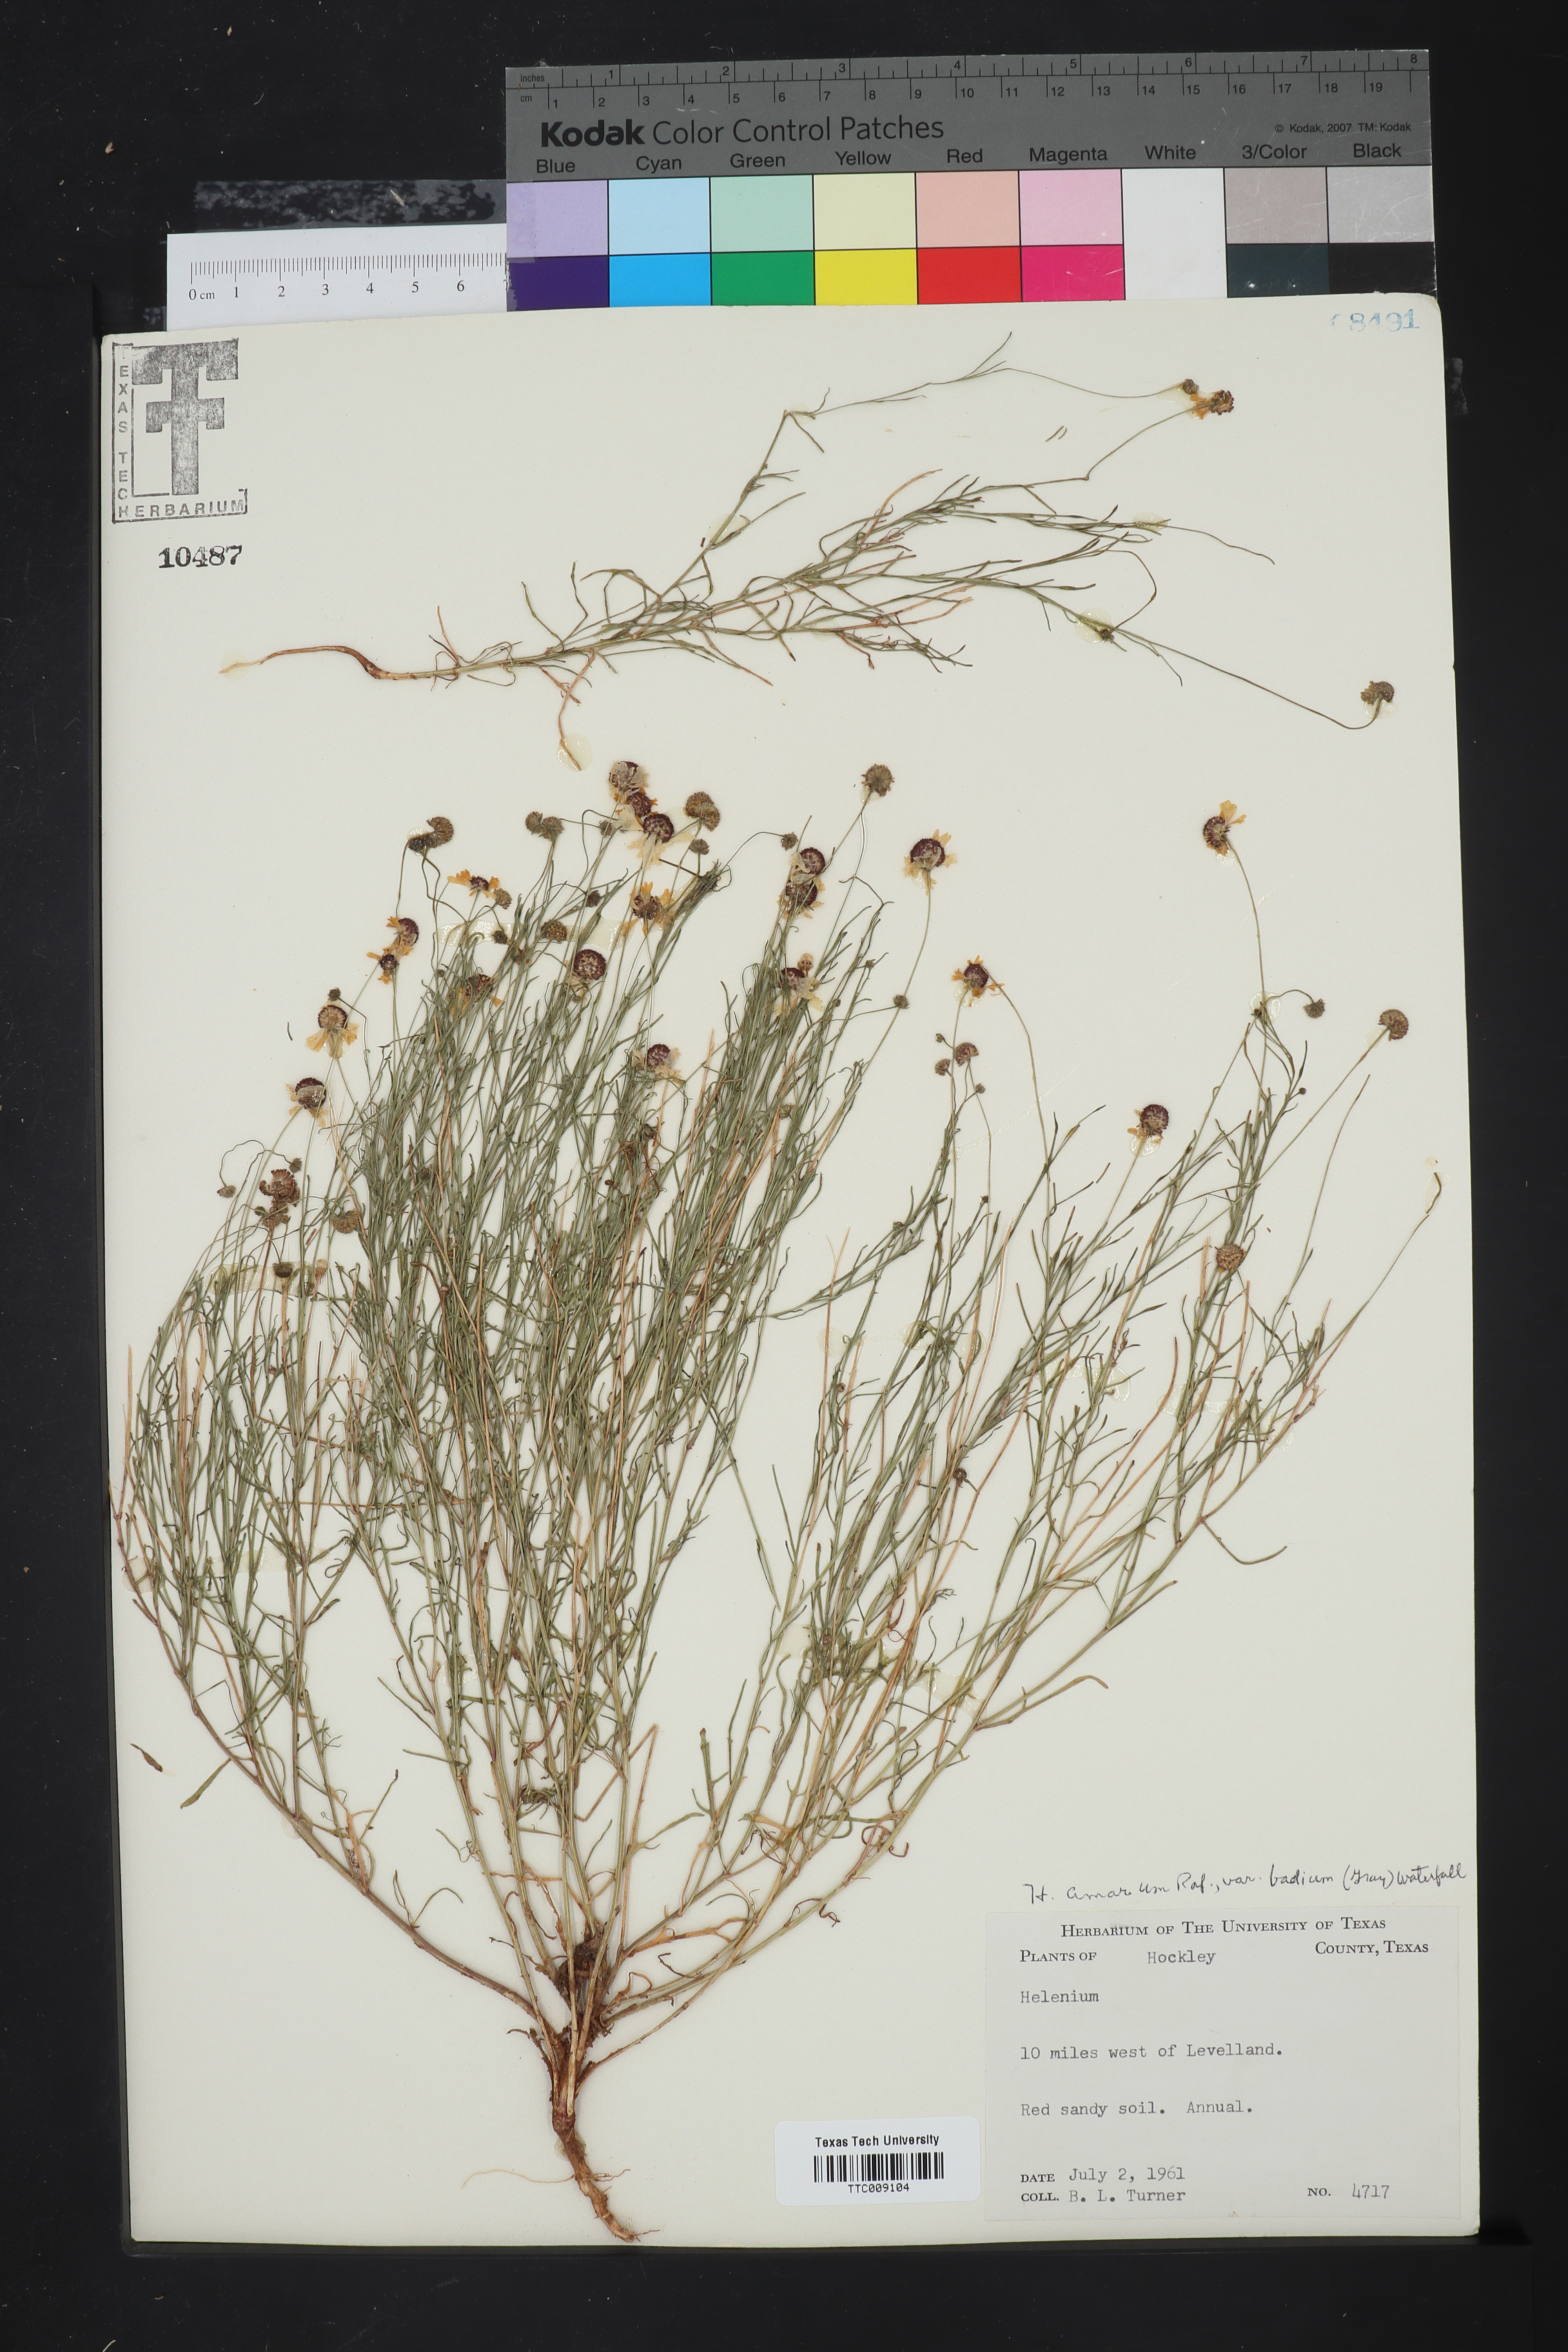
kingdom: Plantae
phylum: Tracheophyta
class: Magnoliopsida
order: Asterales
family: Asteraceae
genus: Helenium
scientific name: Helenium amarum
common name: Bitter sneezeweed
